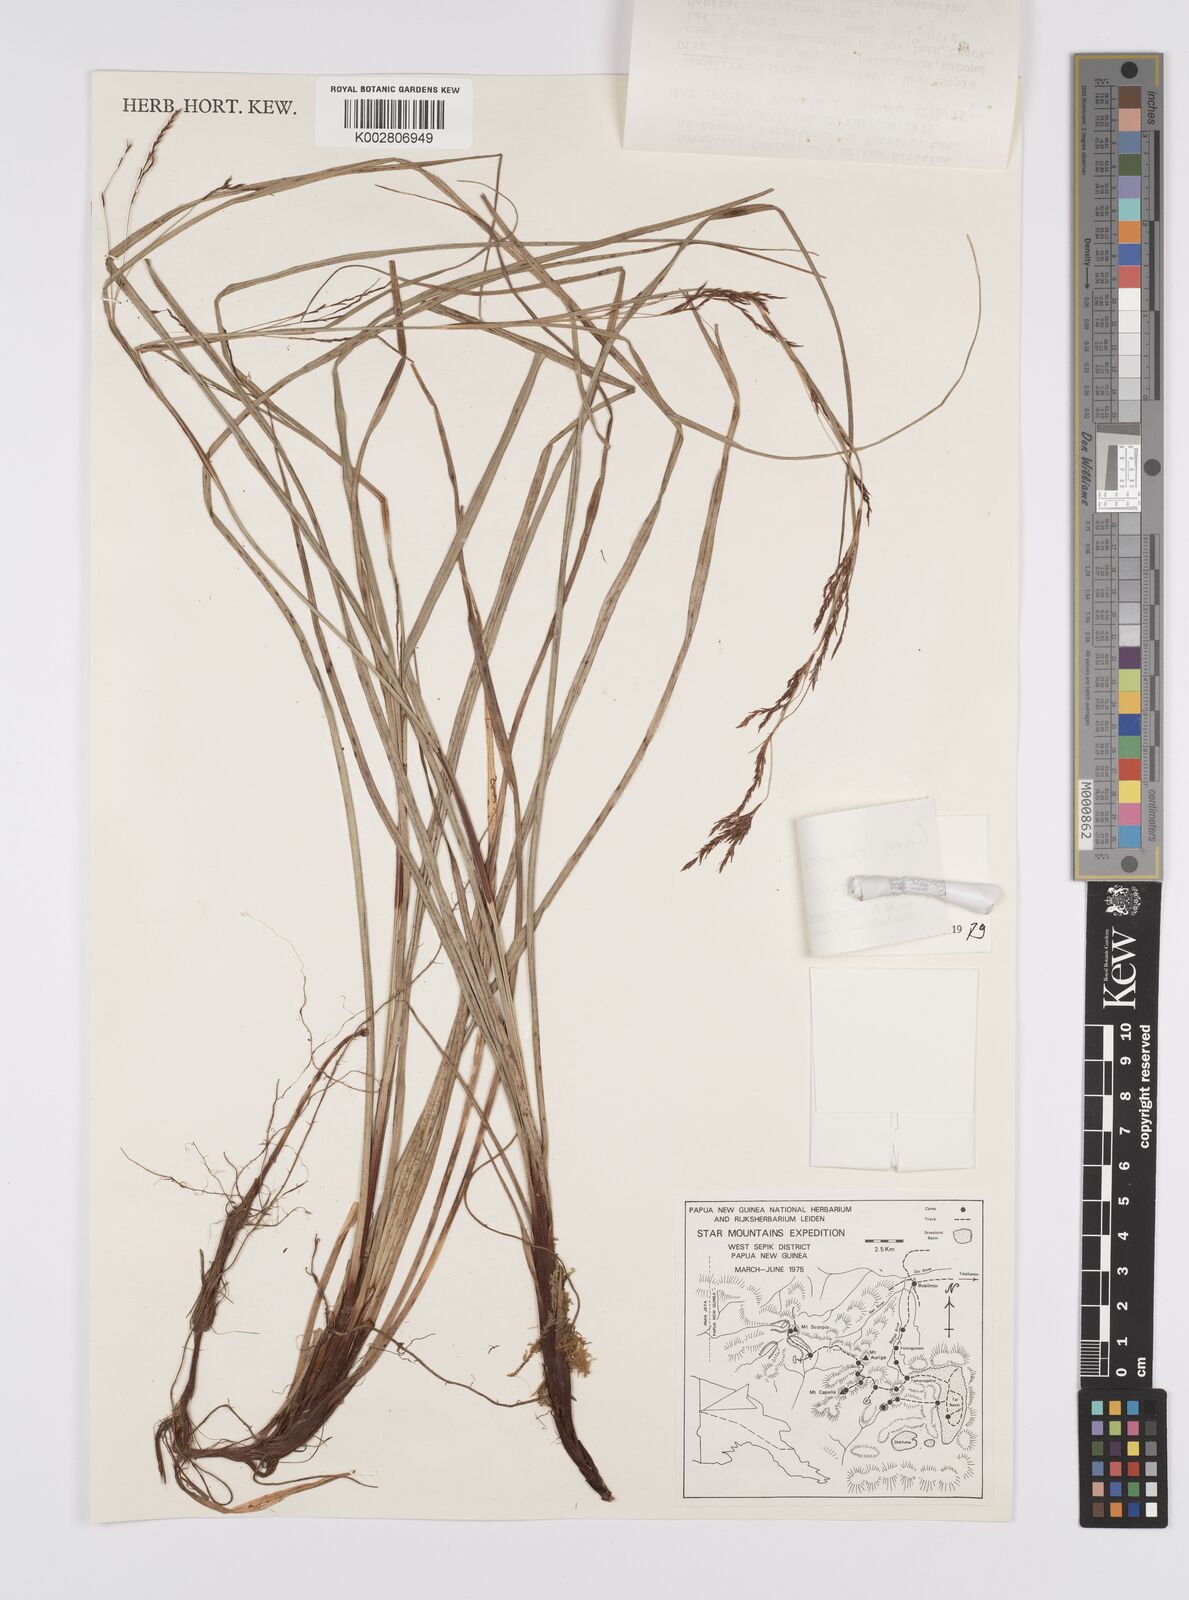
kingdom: Plantae
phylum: Tracheophyta
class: Liliopsida
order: Poales
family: Cyperaceae
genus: Carex
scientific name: Carex turrita
